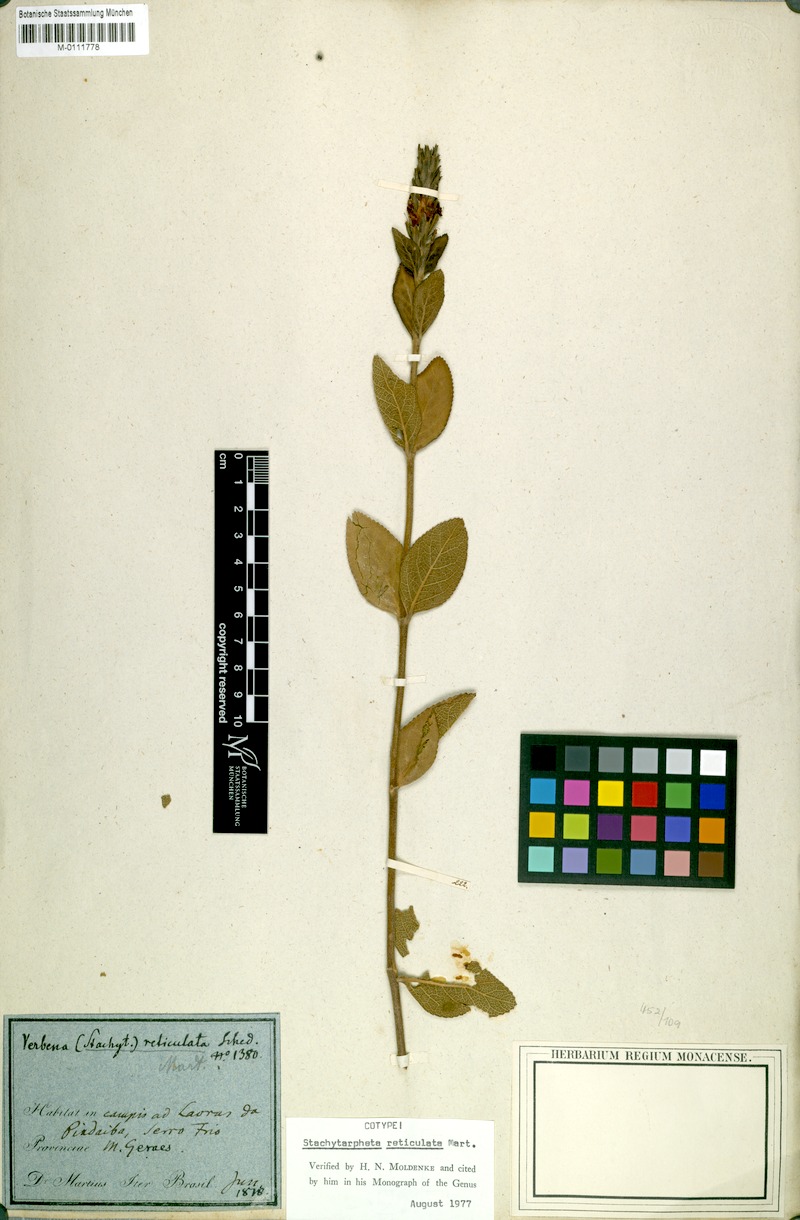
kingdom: Plantae
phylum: Tracheophyta
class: Magnoliopsida
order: Lamiales
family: Verbenaceae
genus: Stachytarpheta
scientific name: Stachytarpheta reticulata
